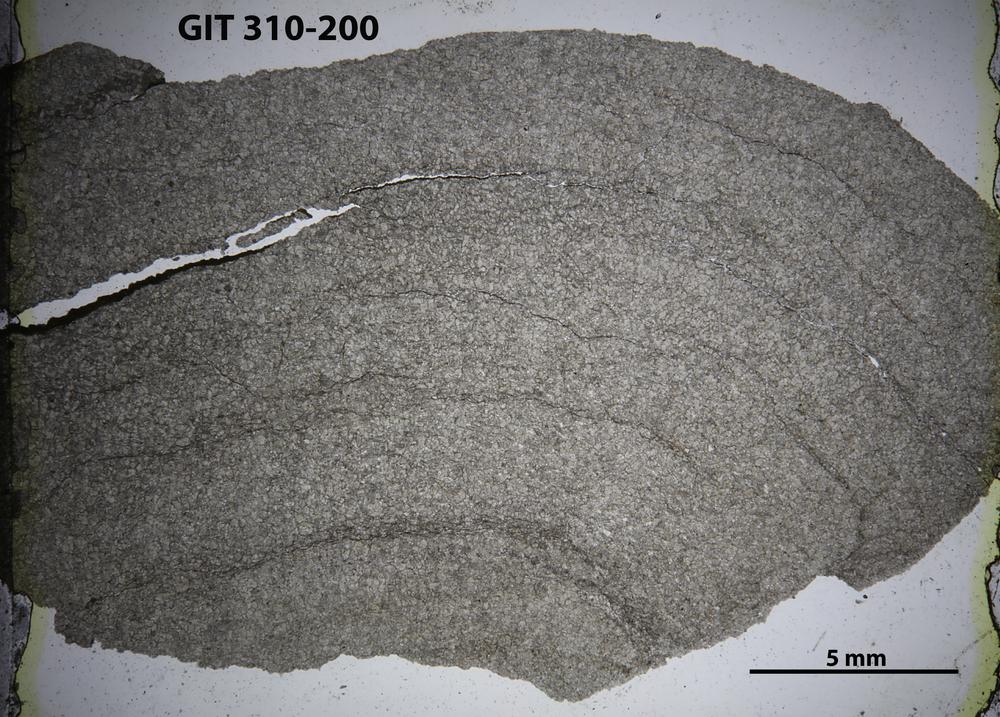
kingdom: Animalia
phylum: Porifera
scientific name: Porifera
